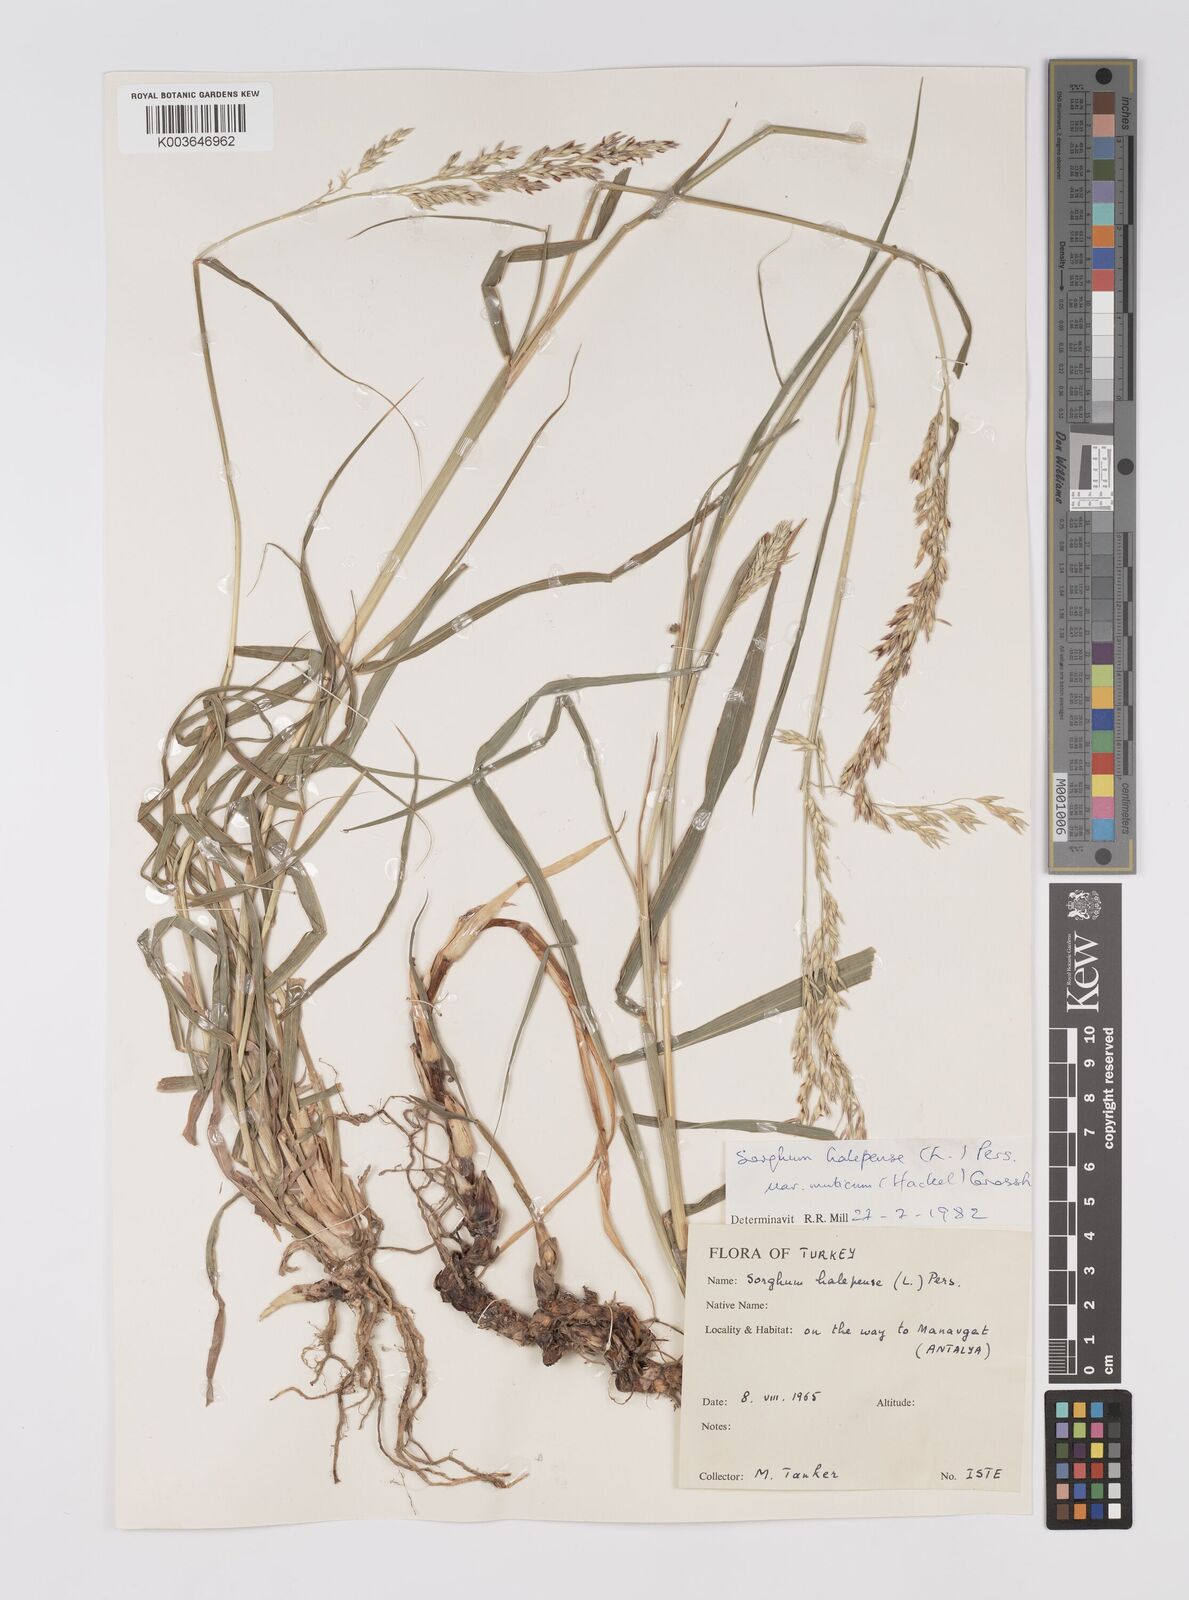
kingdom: Plantae
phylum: Tracheophyta
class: Liliopsida
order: Poales
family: Poaceae
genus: Sorghum
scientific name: Sorghum halepense
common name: Johnson-grass
